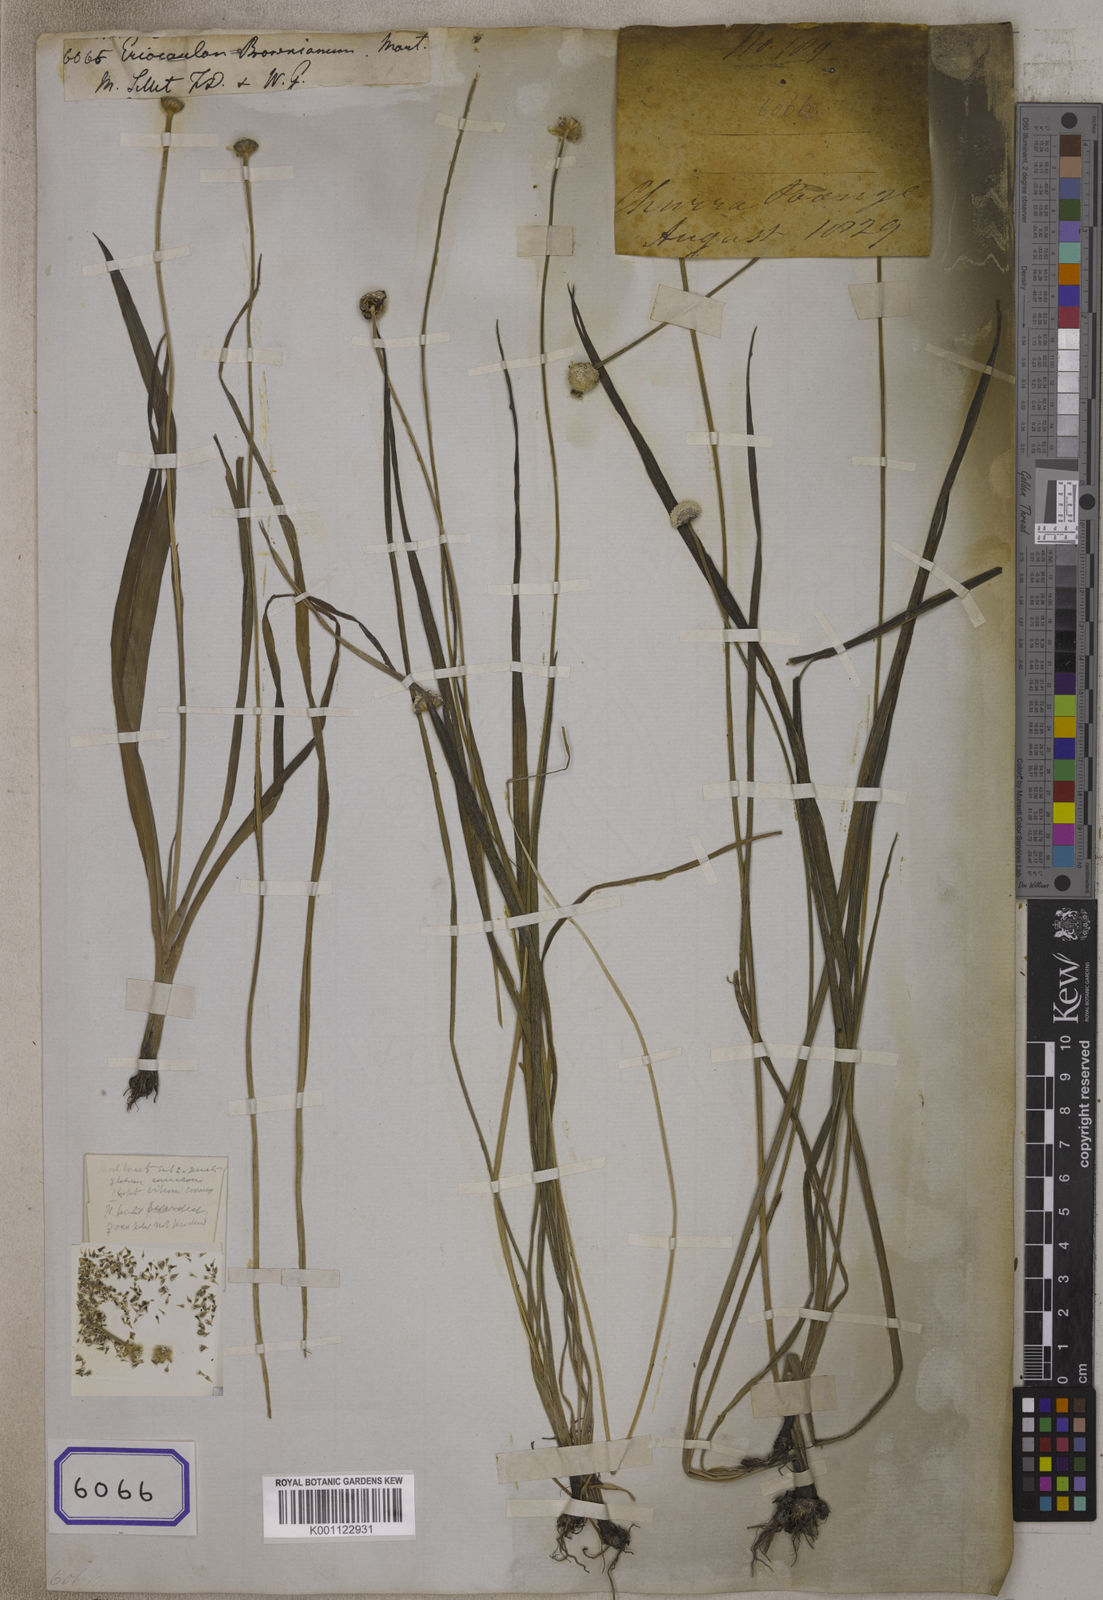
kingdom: Plantae
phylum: Tracheophyta
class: Liliopsida
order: Poales
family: Eriocaulaceae
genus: Eriocaulon
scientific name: Eriocaulon brownianum
